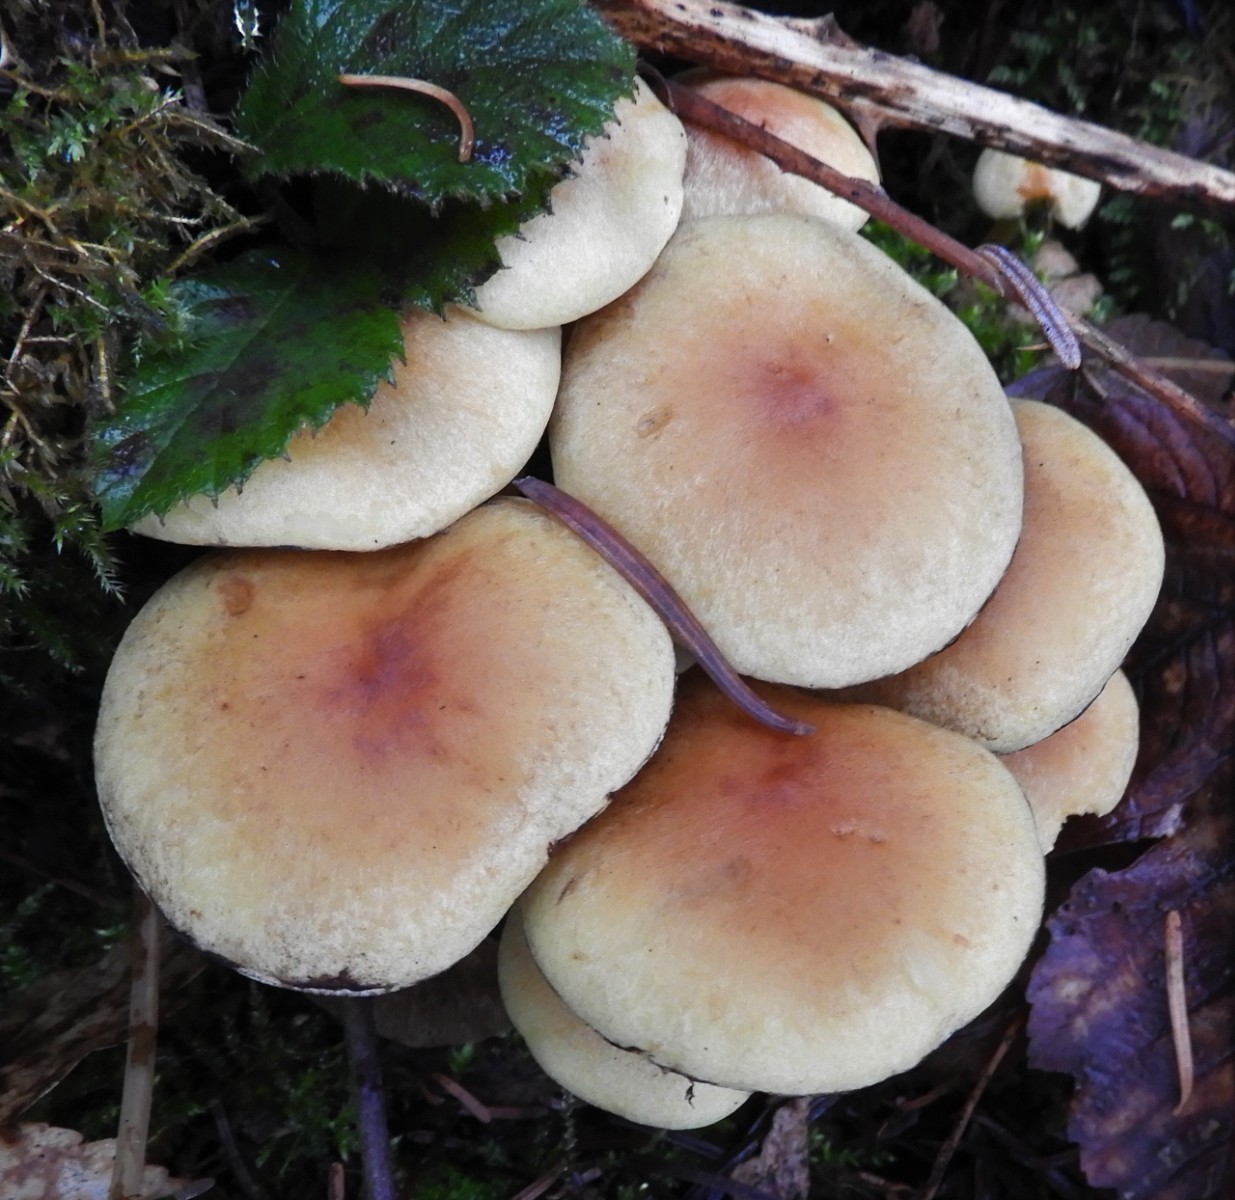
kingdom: Fungi
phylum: Basidiomycota
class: Agaricomycetes
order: Agaricales
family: Strophariaceae
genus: Hypholoma
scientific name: Hypholoma fasciculare
